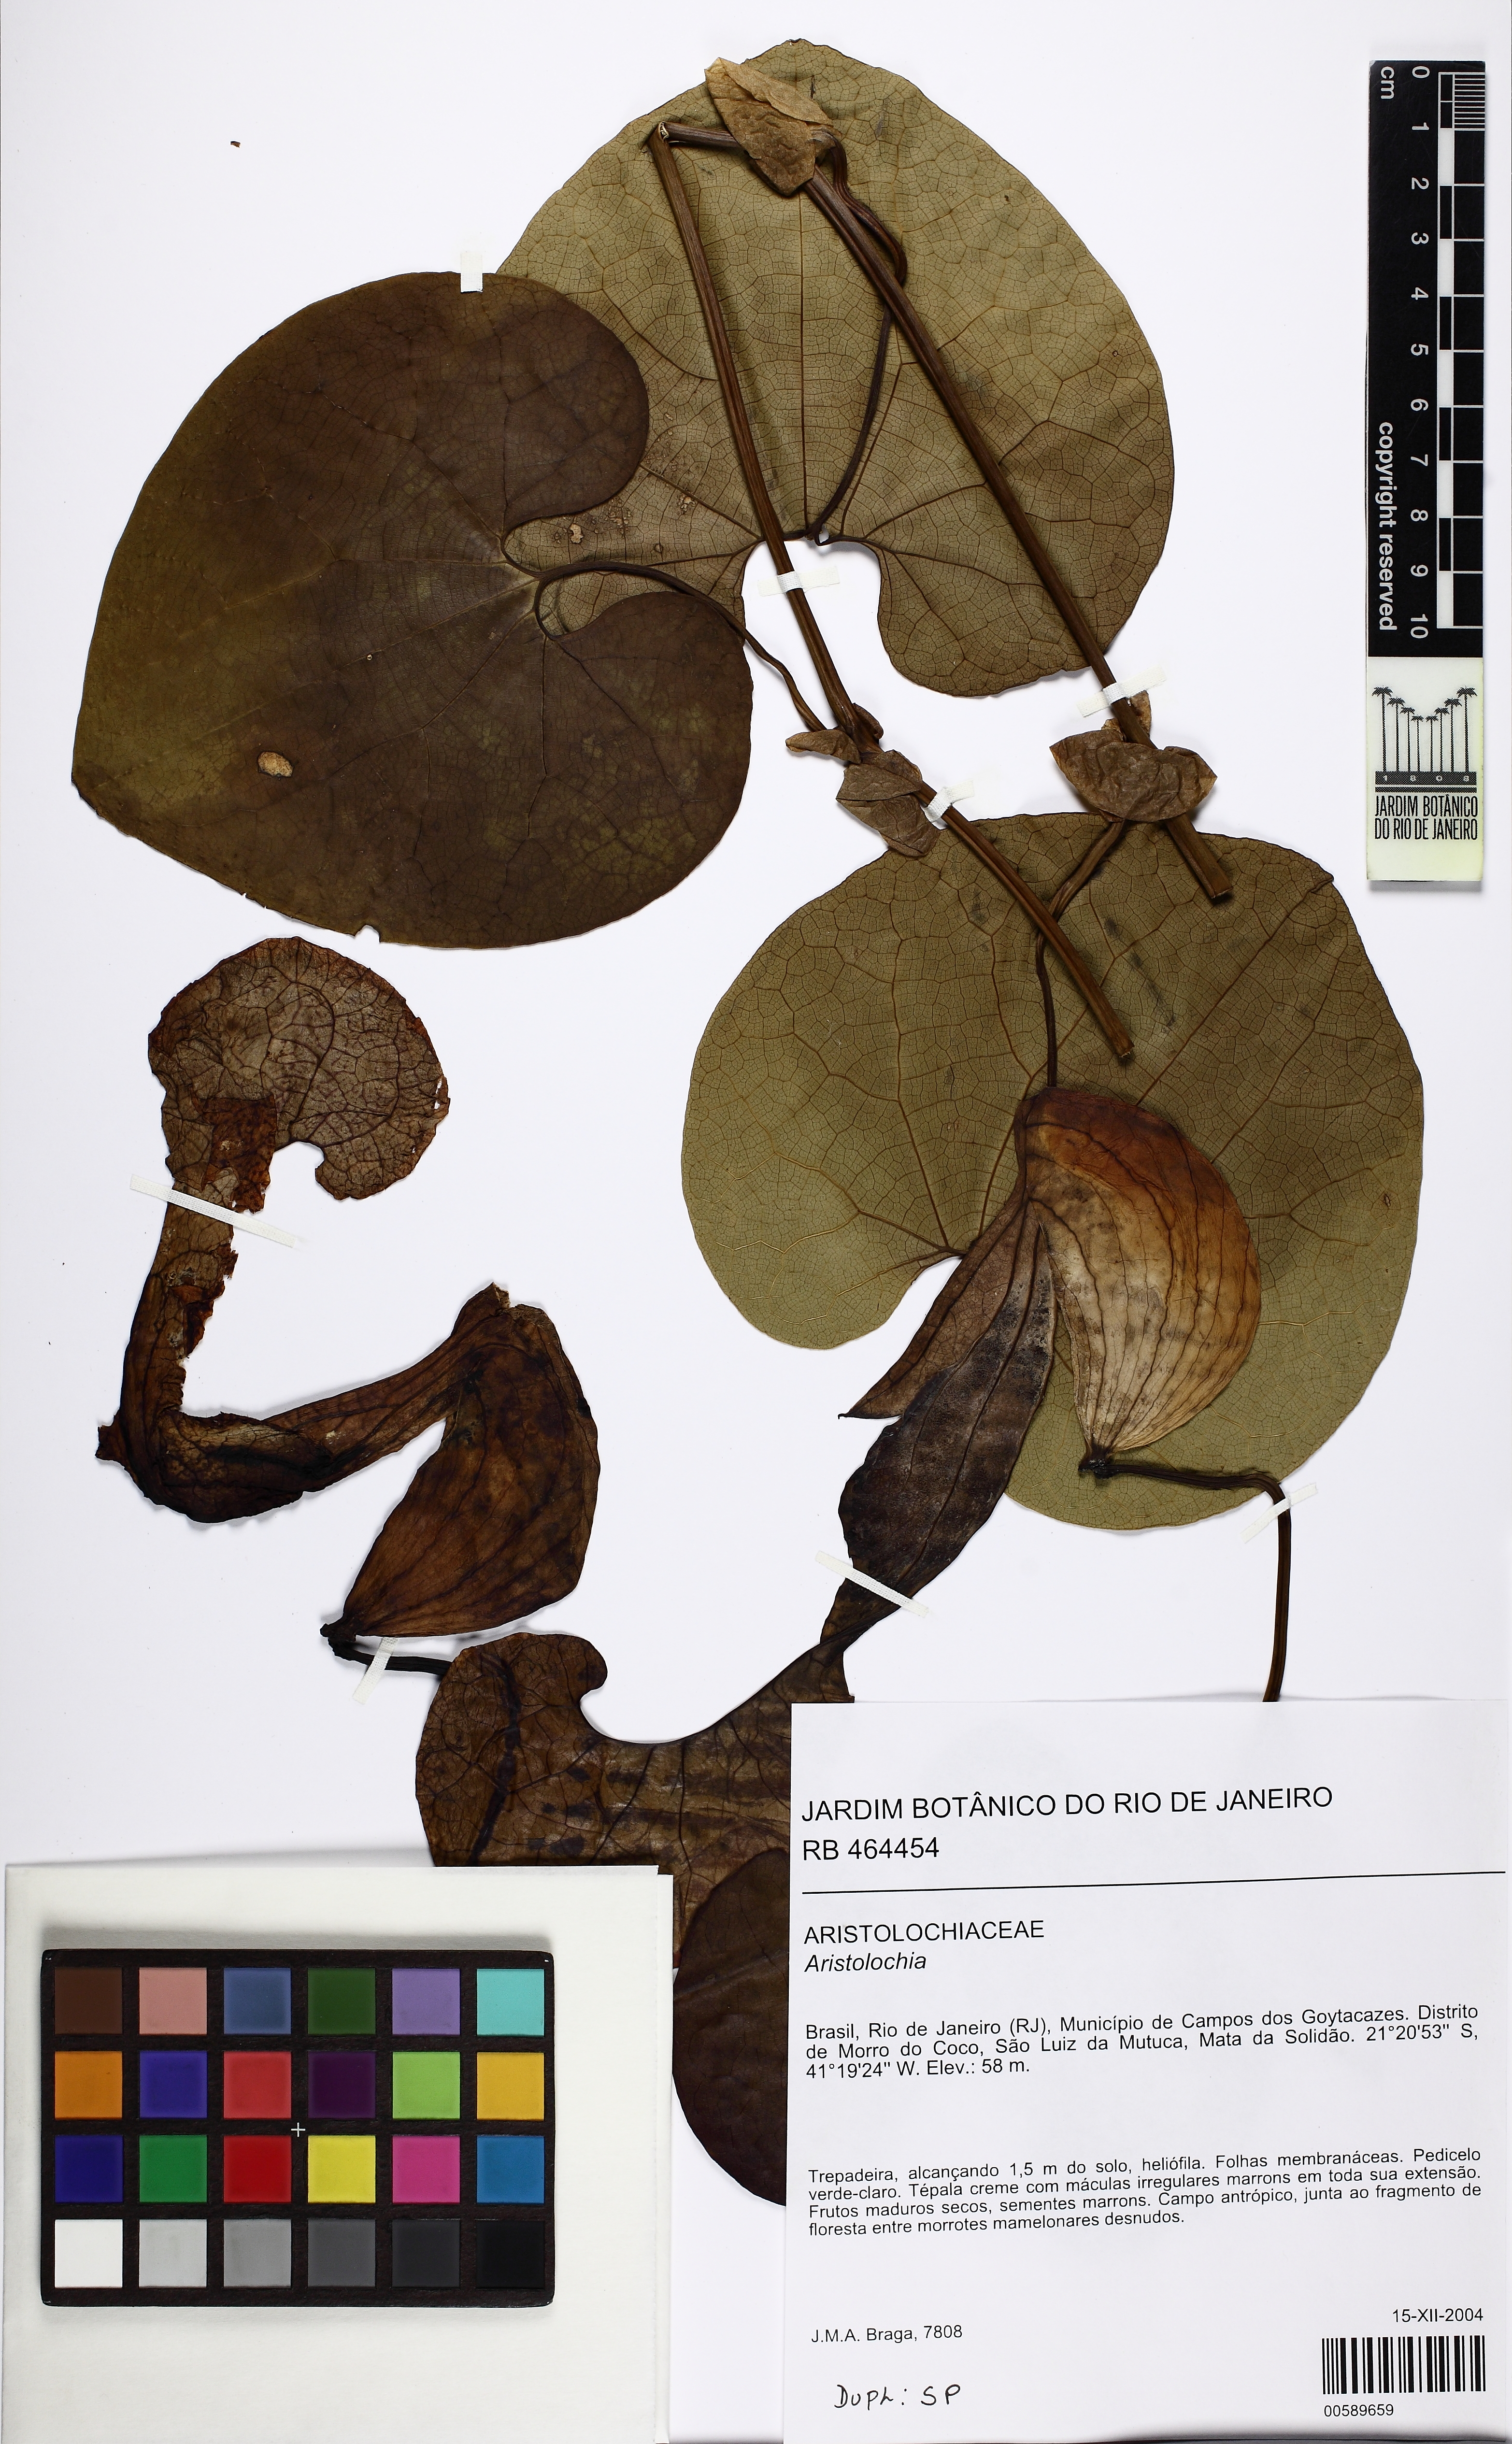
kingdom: Plantae
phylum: Tracheophyta
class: Magnoliopsida
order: Piperales
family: Aristolochiaceae
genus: Aristolochia
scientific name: Aristolochia cymbifera
